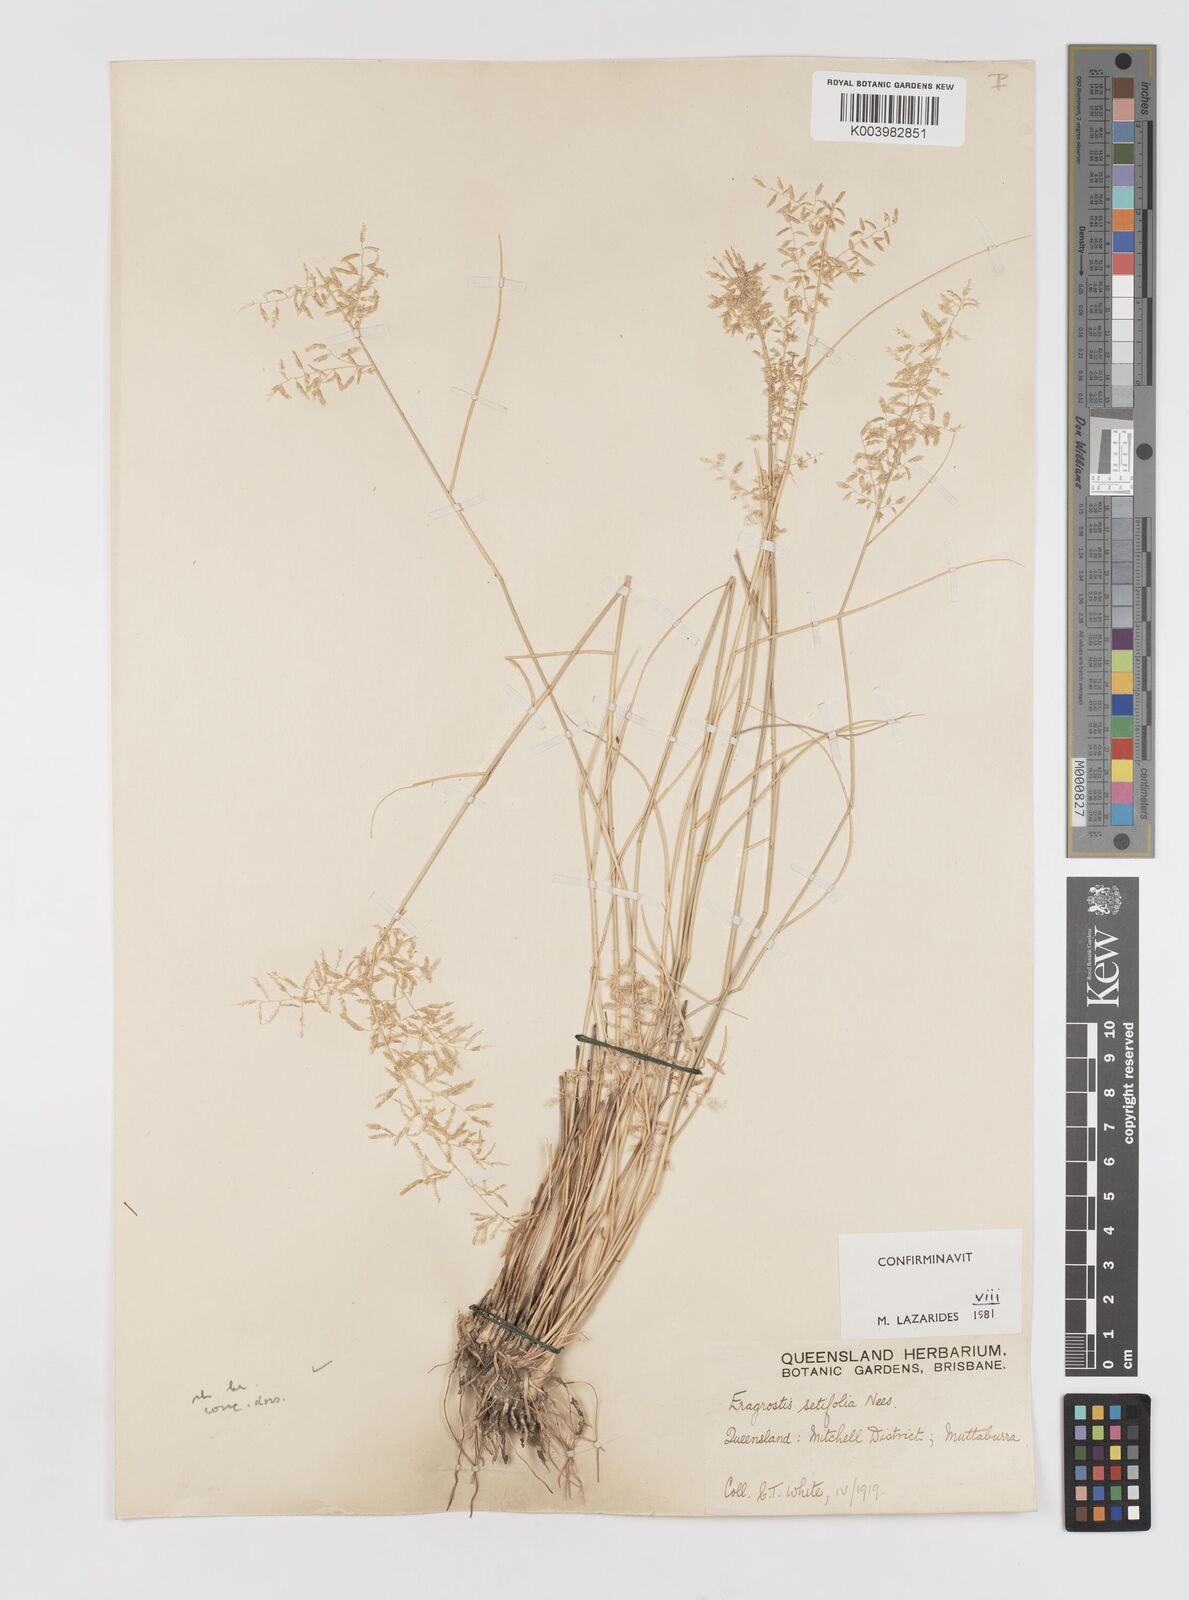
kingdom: Plantae
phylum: Tracheophyta
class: Liliopsida
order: Poales
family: Poaceae
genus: Eragrostis
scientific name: Eragrostis setifolia
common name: Bristleleaf lovegrass
